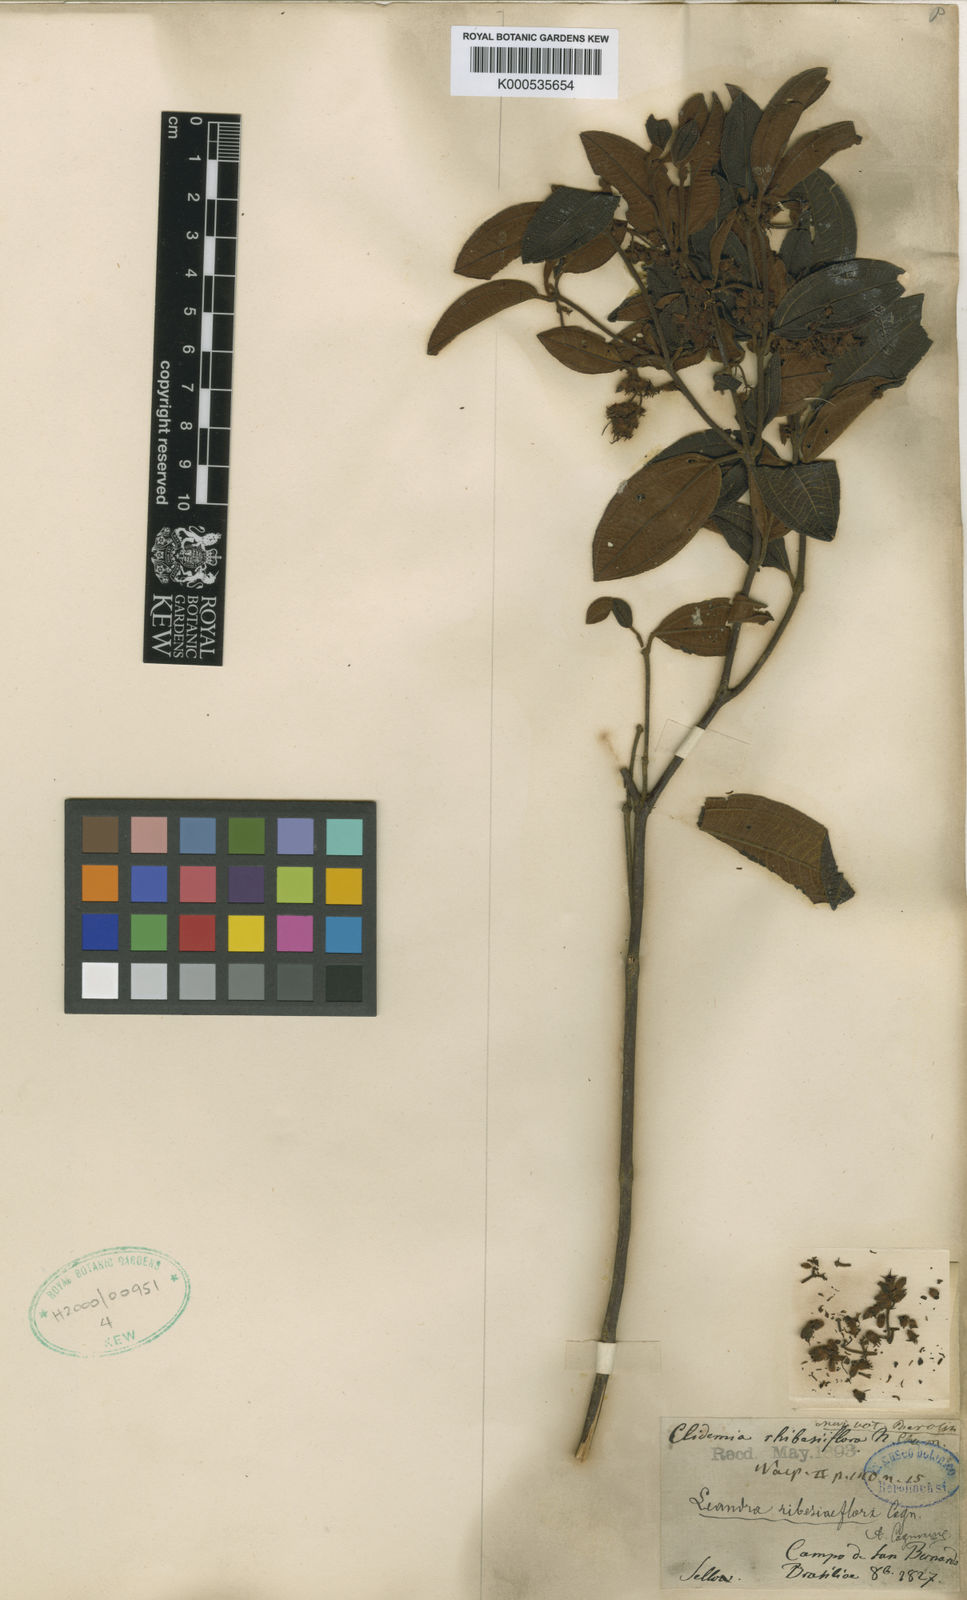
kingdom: Plantae
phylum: Tracheophyta
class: Magnoliopsida
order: Myrtales
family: Melastomataceae
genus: Miconia
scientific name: Miconia Leandra ribesiaeflora
